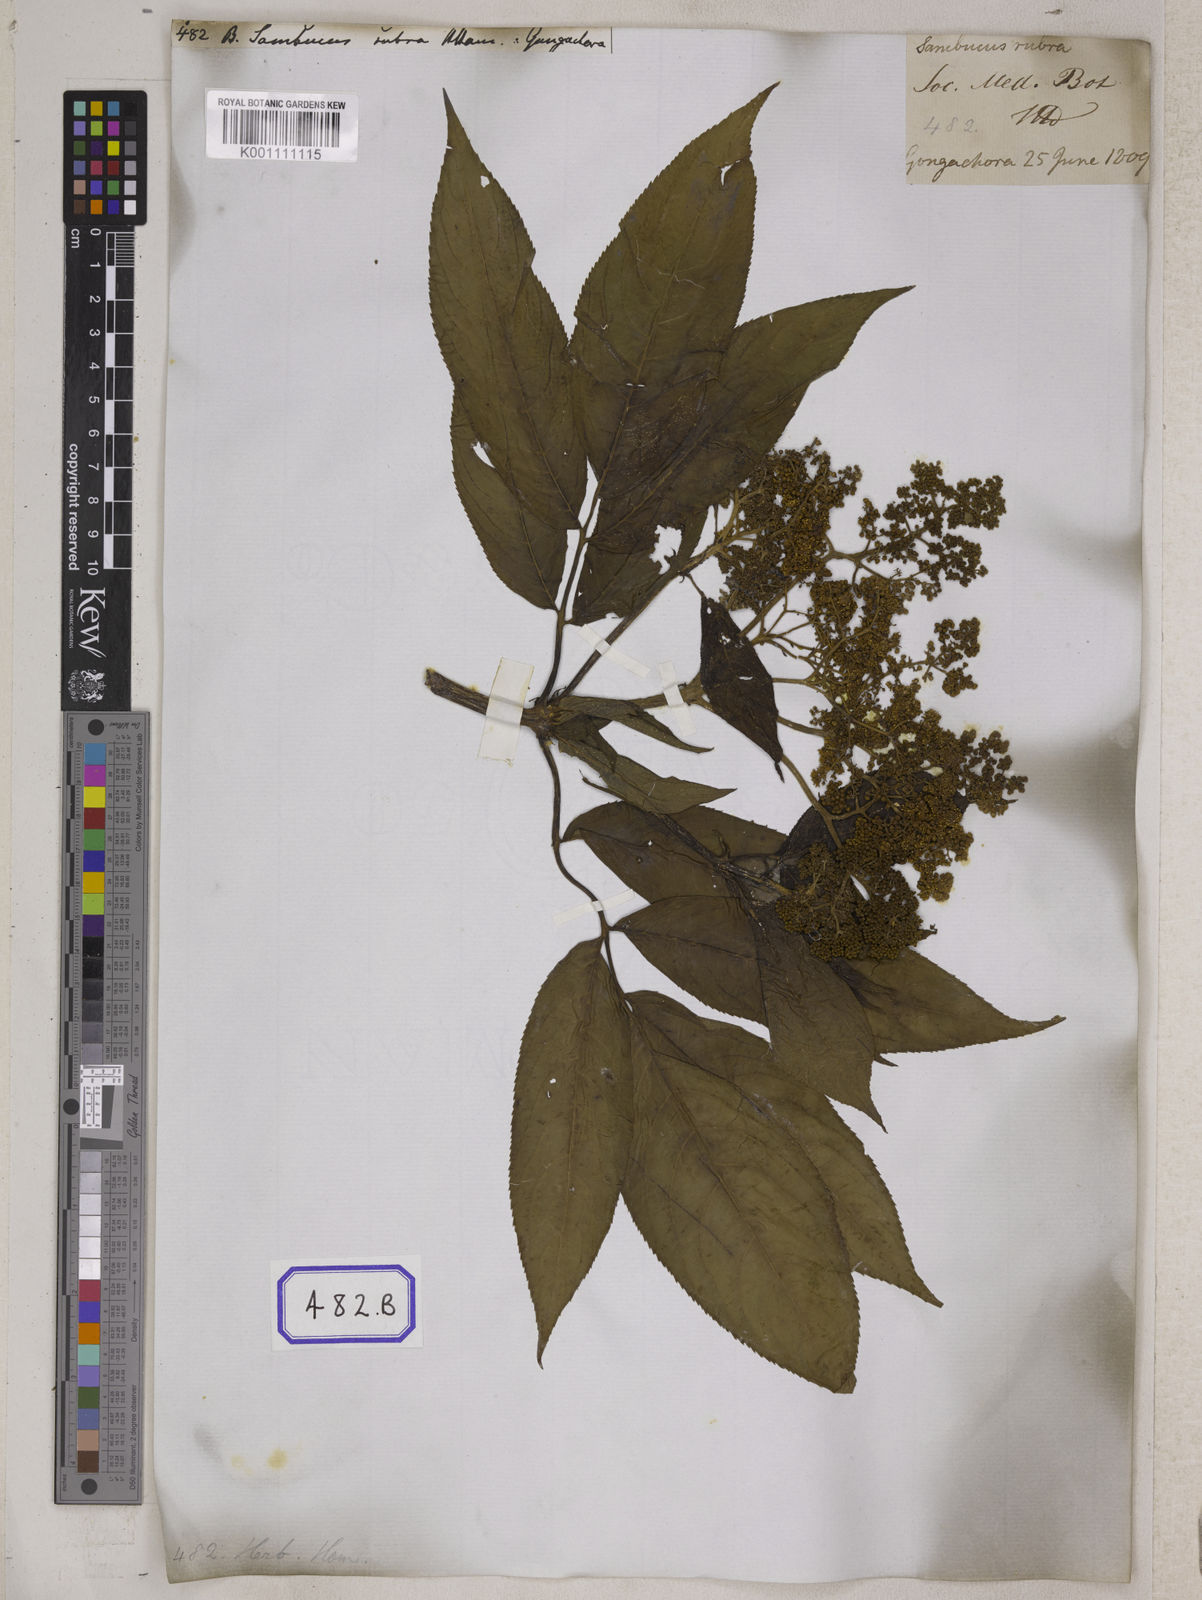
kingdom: Plantae
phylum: Tracheophyta
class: Magnoliopsida
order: Dipsacales
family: Viburnaceae
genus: Sambucus
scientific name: Sambucus
